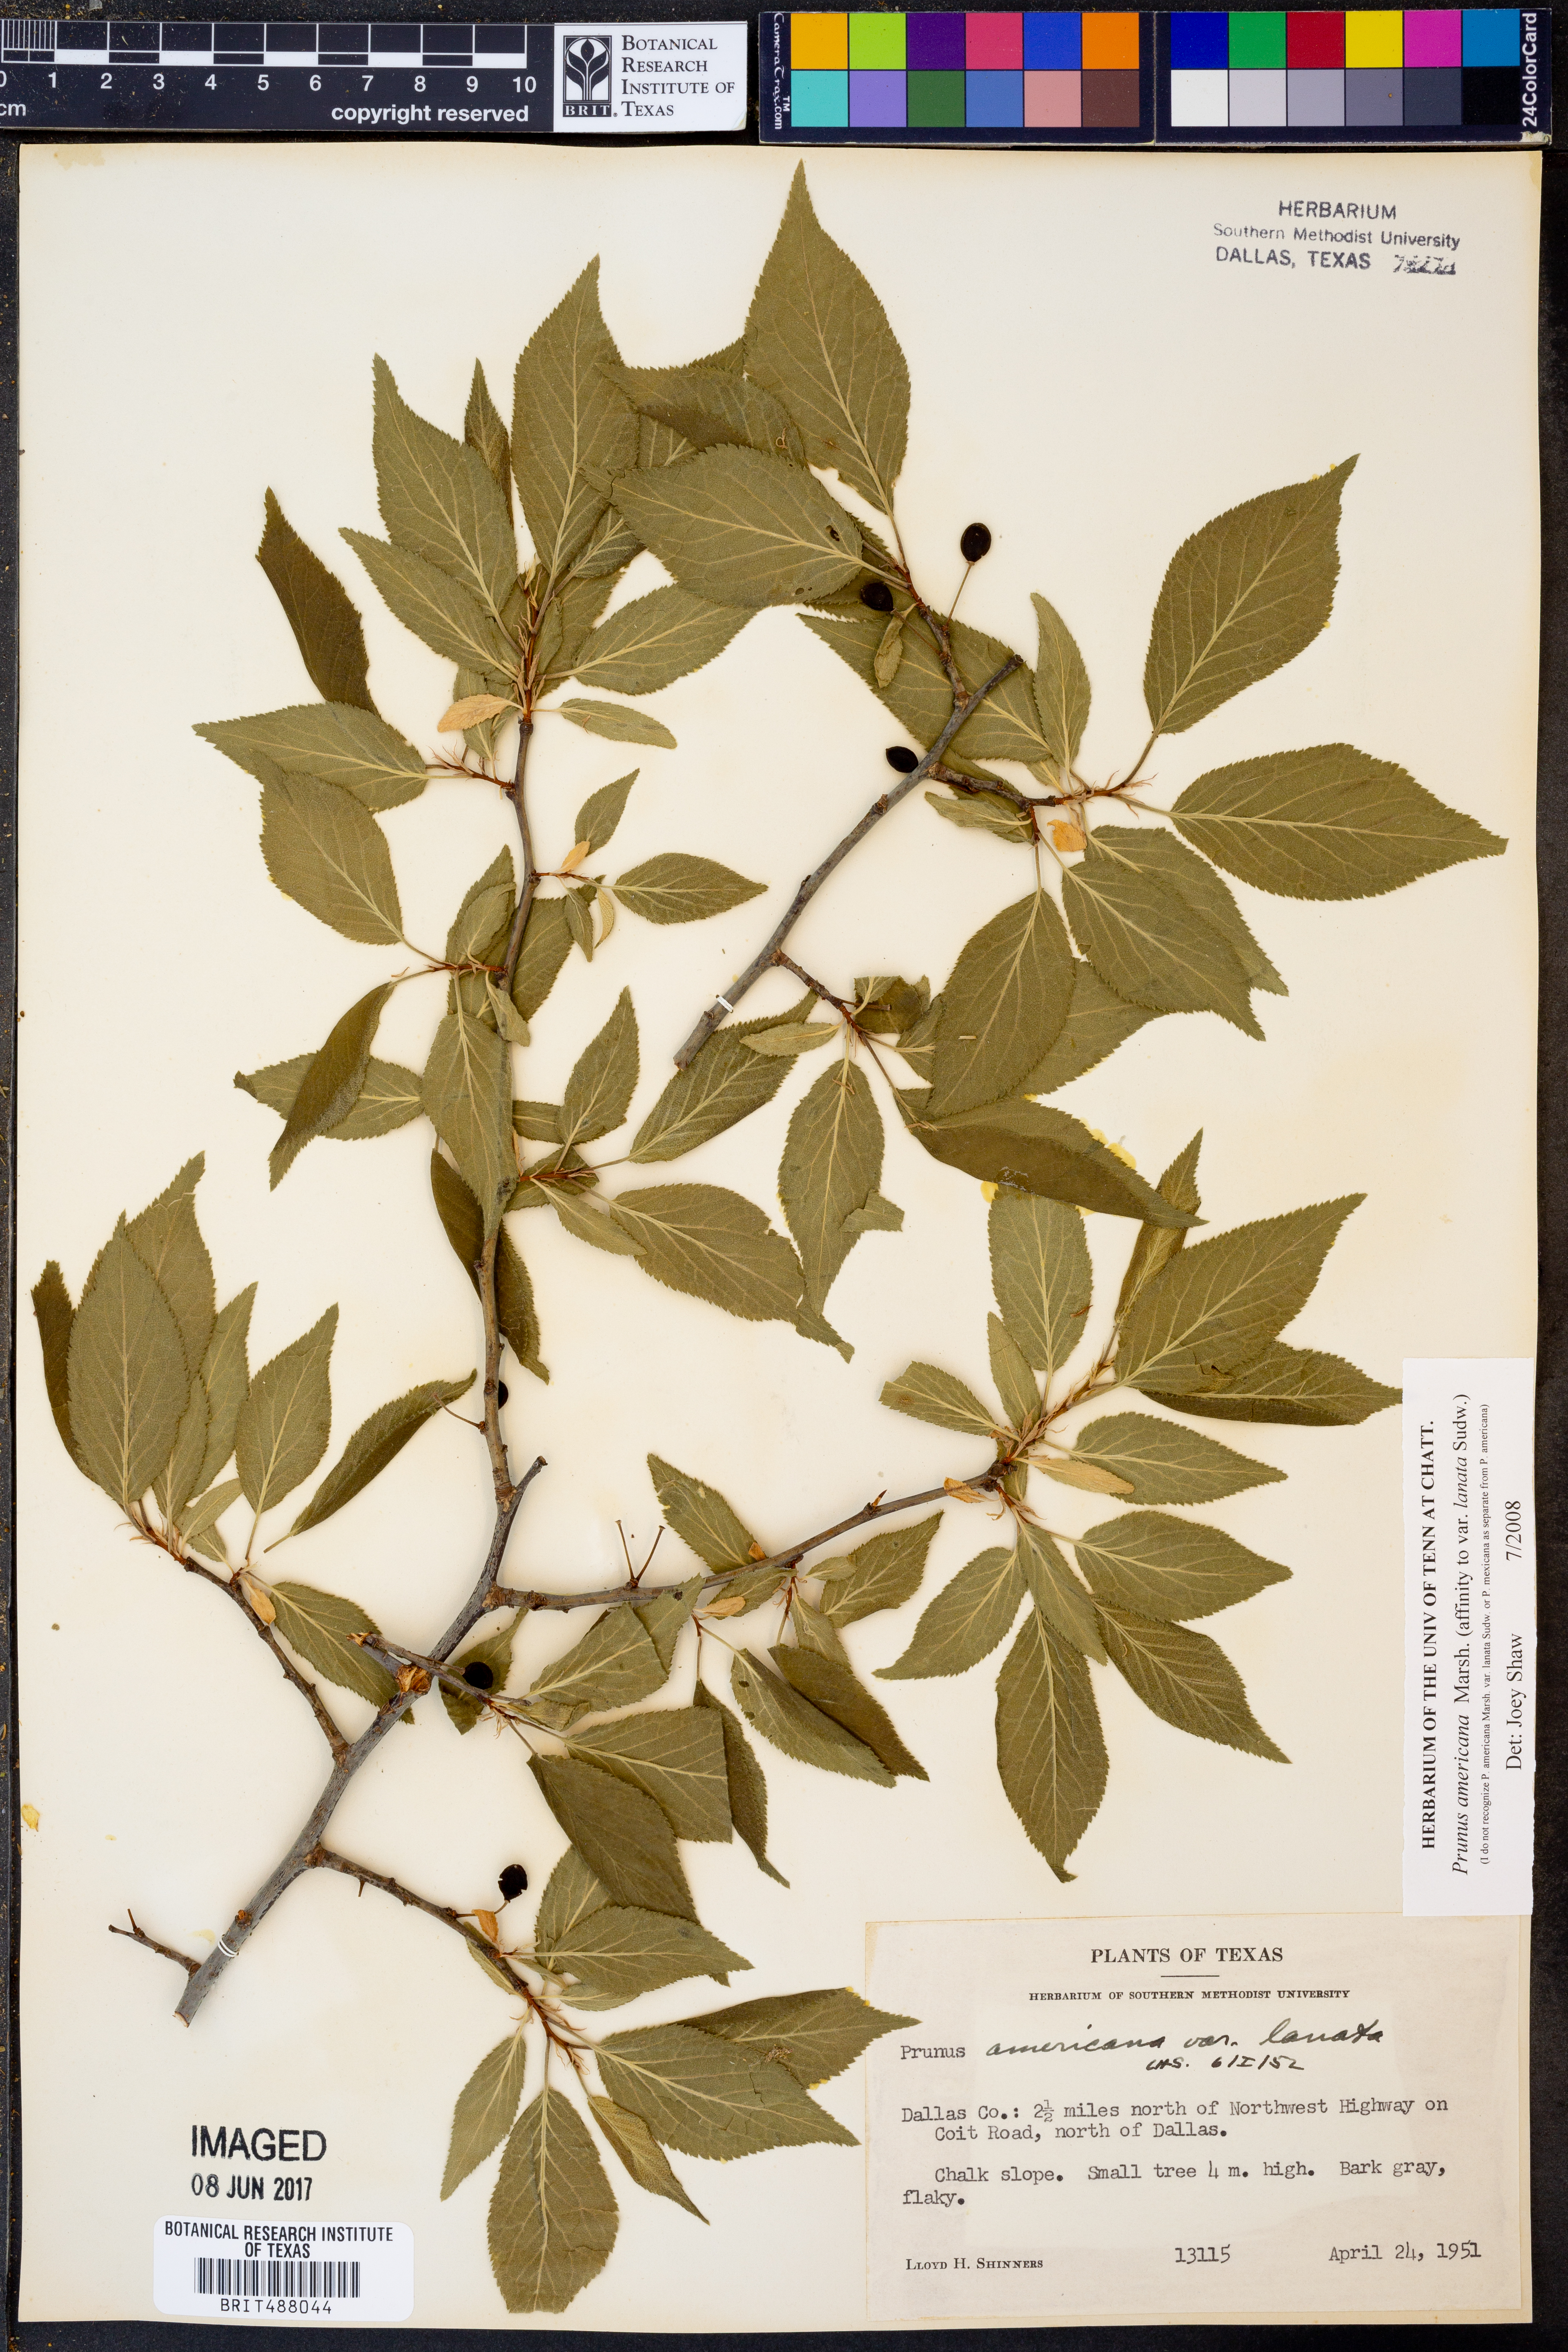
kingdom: Plantae
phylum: Tracheophyta
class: Magnoliopsida
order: Rosales
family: Rosaceae
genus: Prunus
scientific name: Prunus mexicana
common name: Mexican plum
